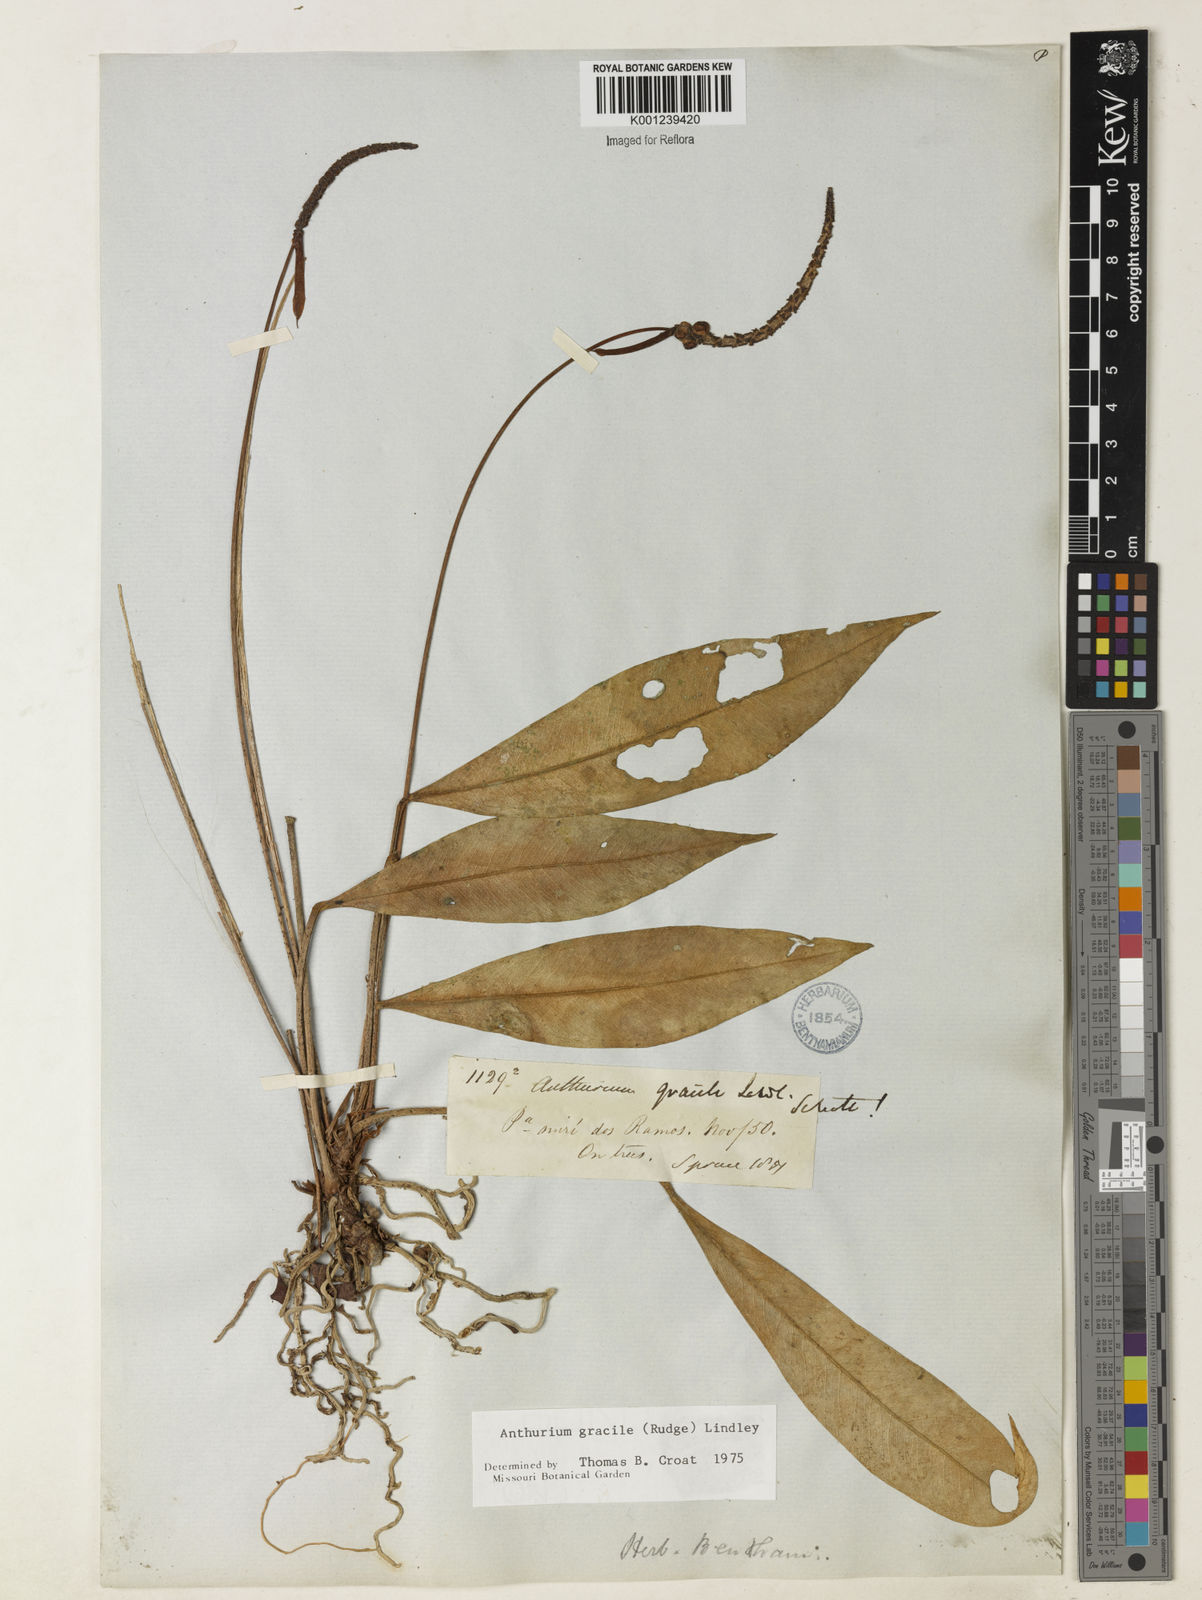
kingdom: Plantae
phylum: Tracheophyta
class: Liliopsida
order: Alismatales
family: Araceae
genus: Anthurium
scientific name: Anthurium gracile
